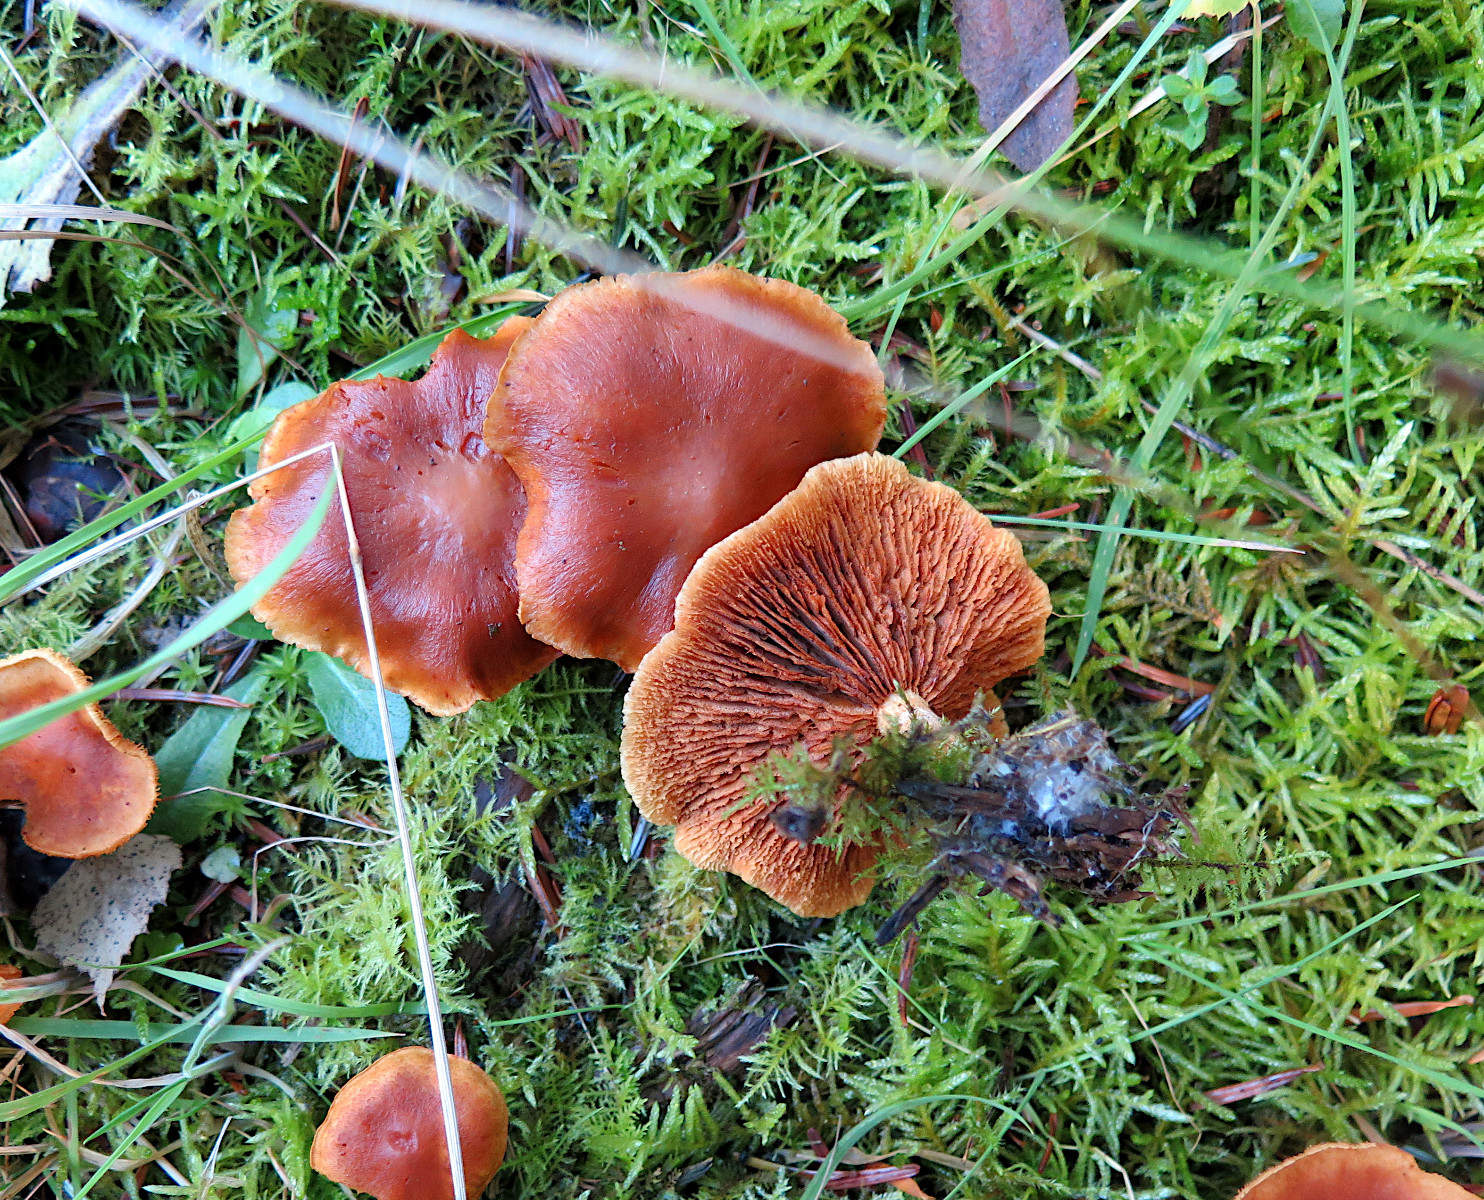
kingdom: Fungi
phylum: Basidiomycota
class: Agaricomycetes
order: Agaricales
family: Hymenogastraceae
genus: Gymnopilus
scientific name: Gymnopilus
